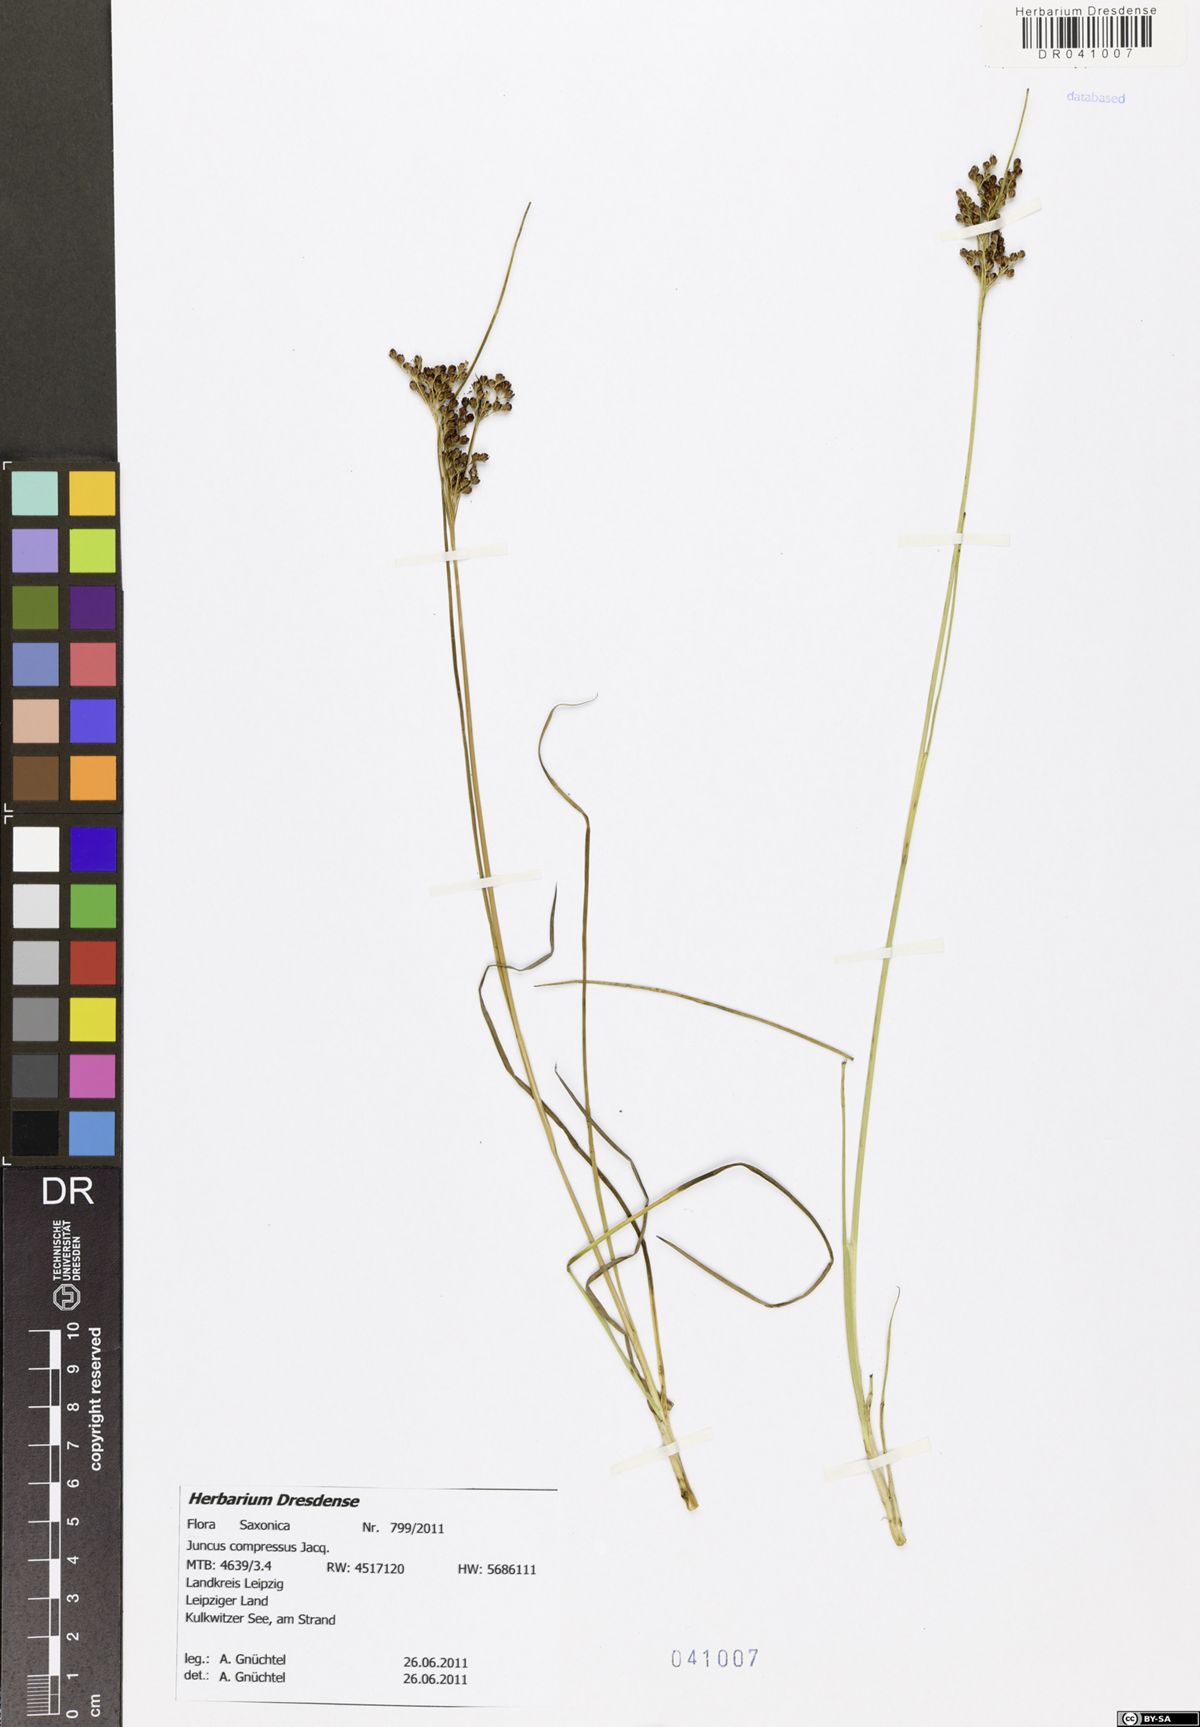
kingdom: Plantae
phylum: Tracheophyta
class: Liliopsida
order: Poales
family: Juncaceae
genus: Juncus
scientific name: Juncus compressus
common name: Round-fruited rush
